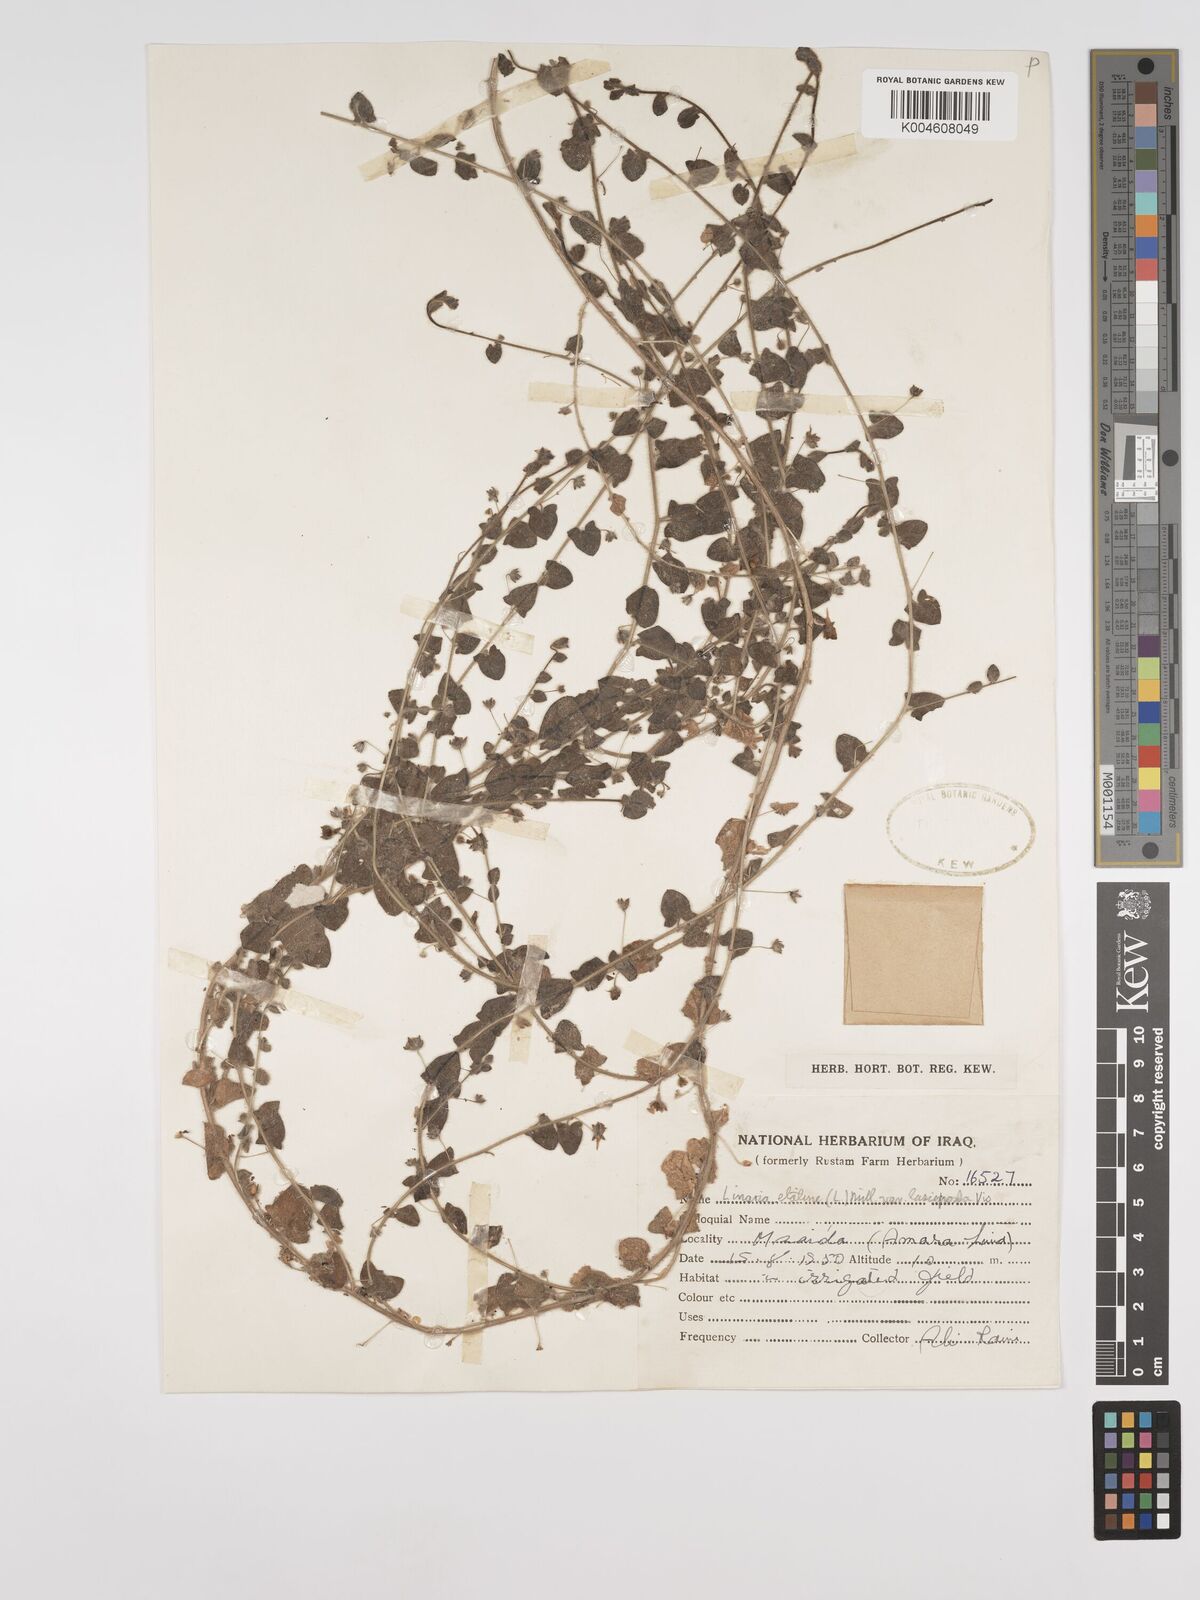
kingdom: Plantae
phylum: Tracheophyta
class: Magnoliopsida
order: Lamiales
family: Plantaginaceae
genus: Kickxia
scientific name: Kickxia elatine
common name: Sharp-leaved fluellen
